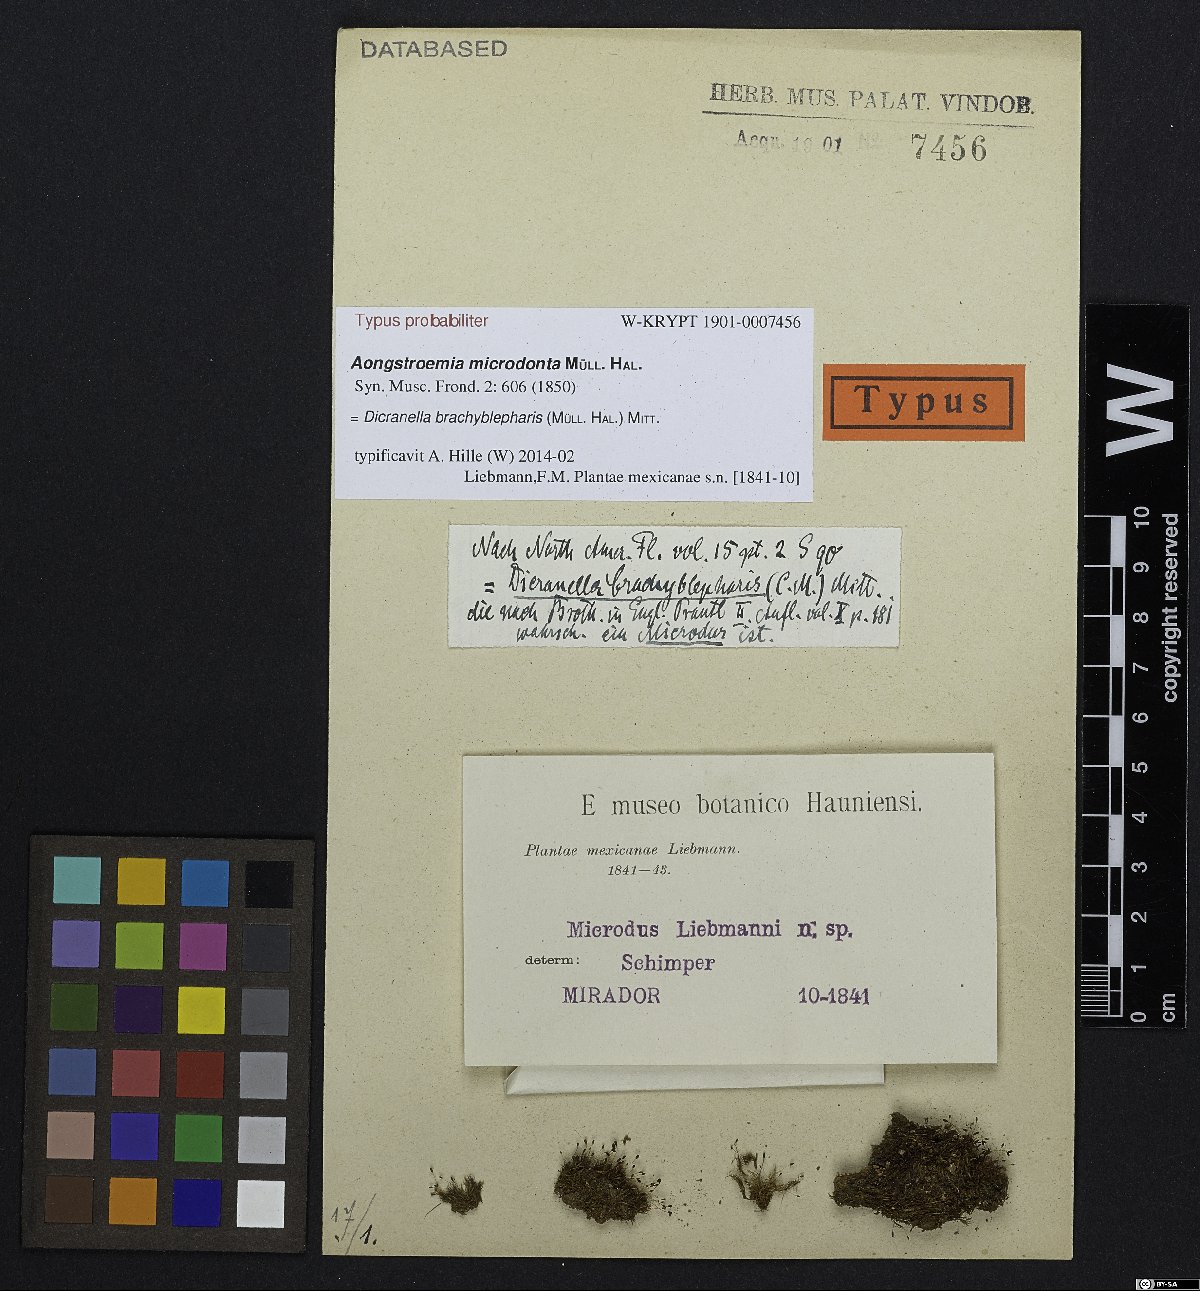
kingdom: Plantae
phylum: Bryophyta
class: Bryopsida
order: Dicranales
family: Dicranellaceae
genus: Dicranella
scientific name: Dicranella brachyblepharis
